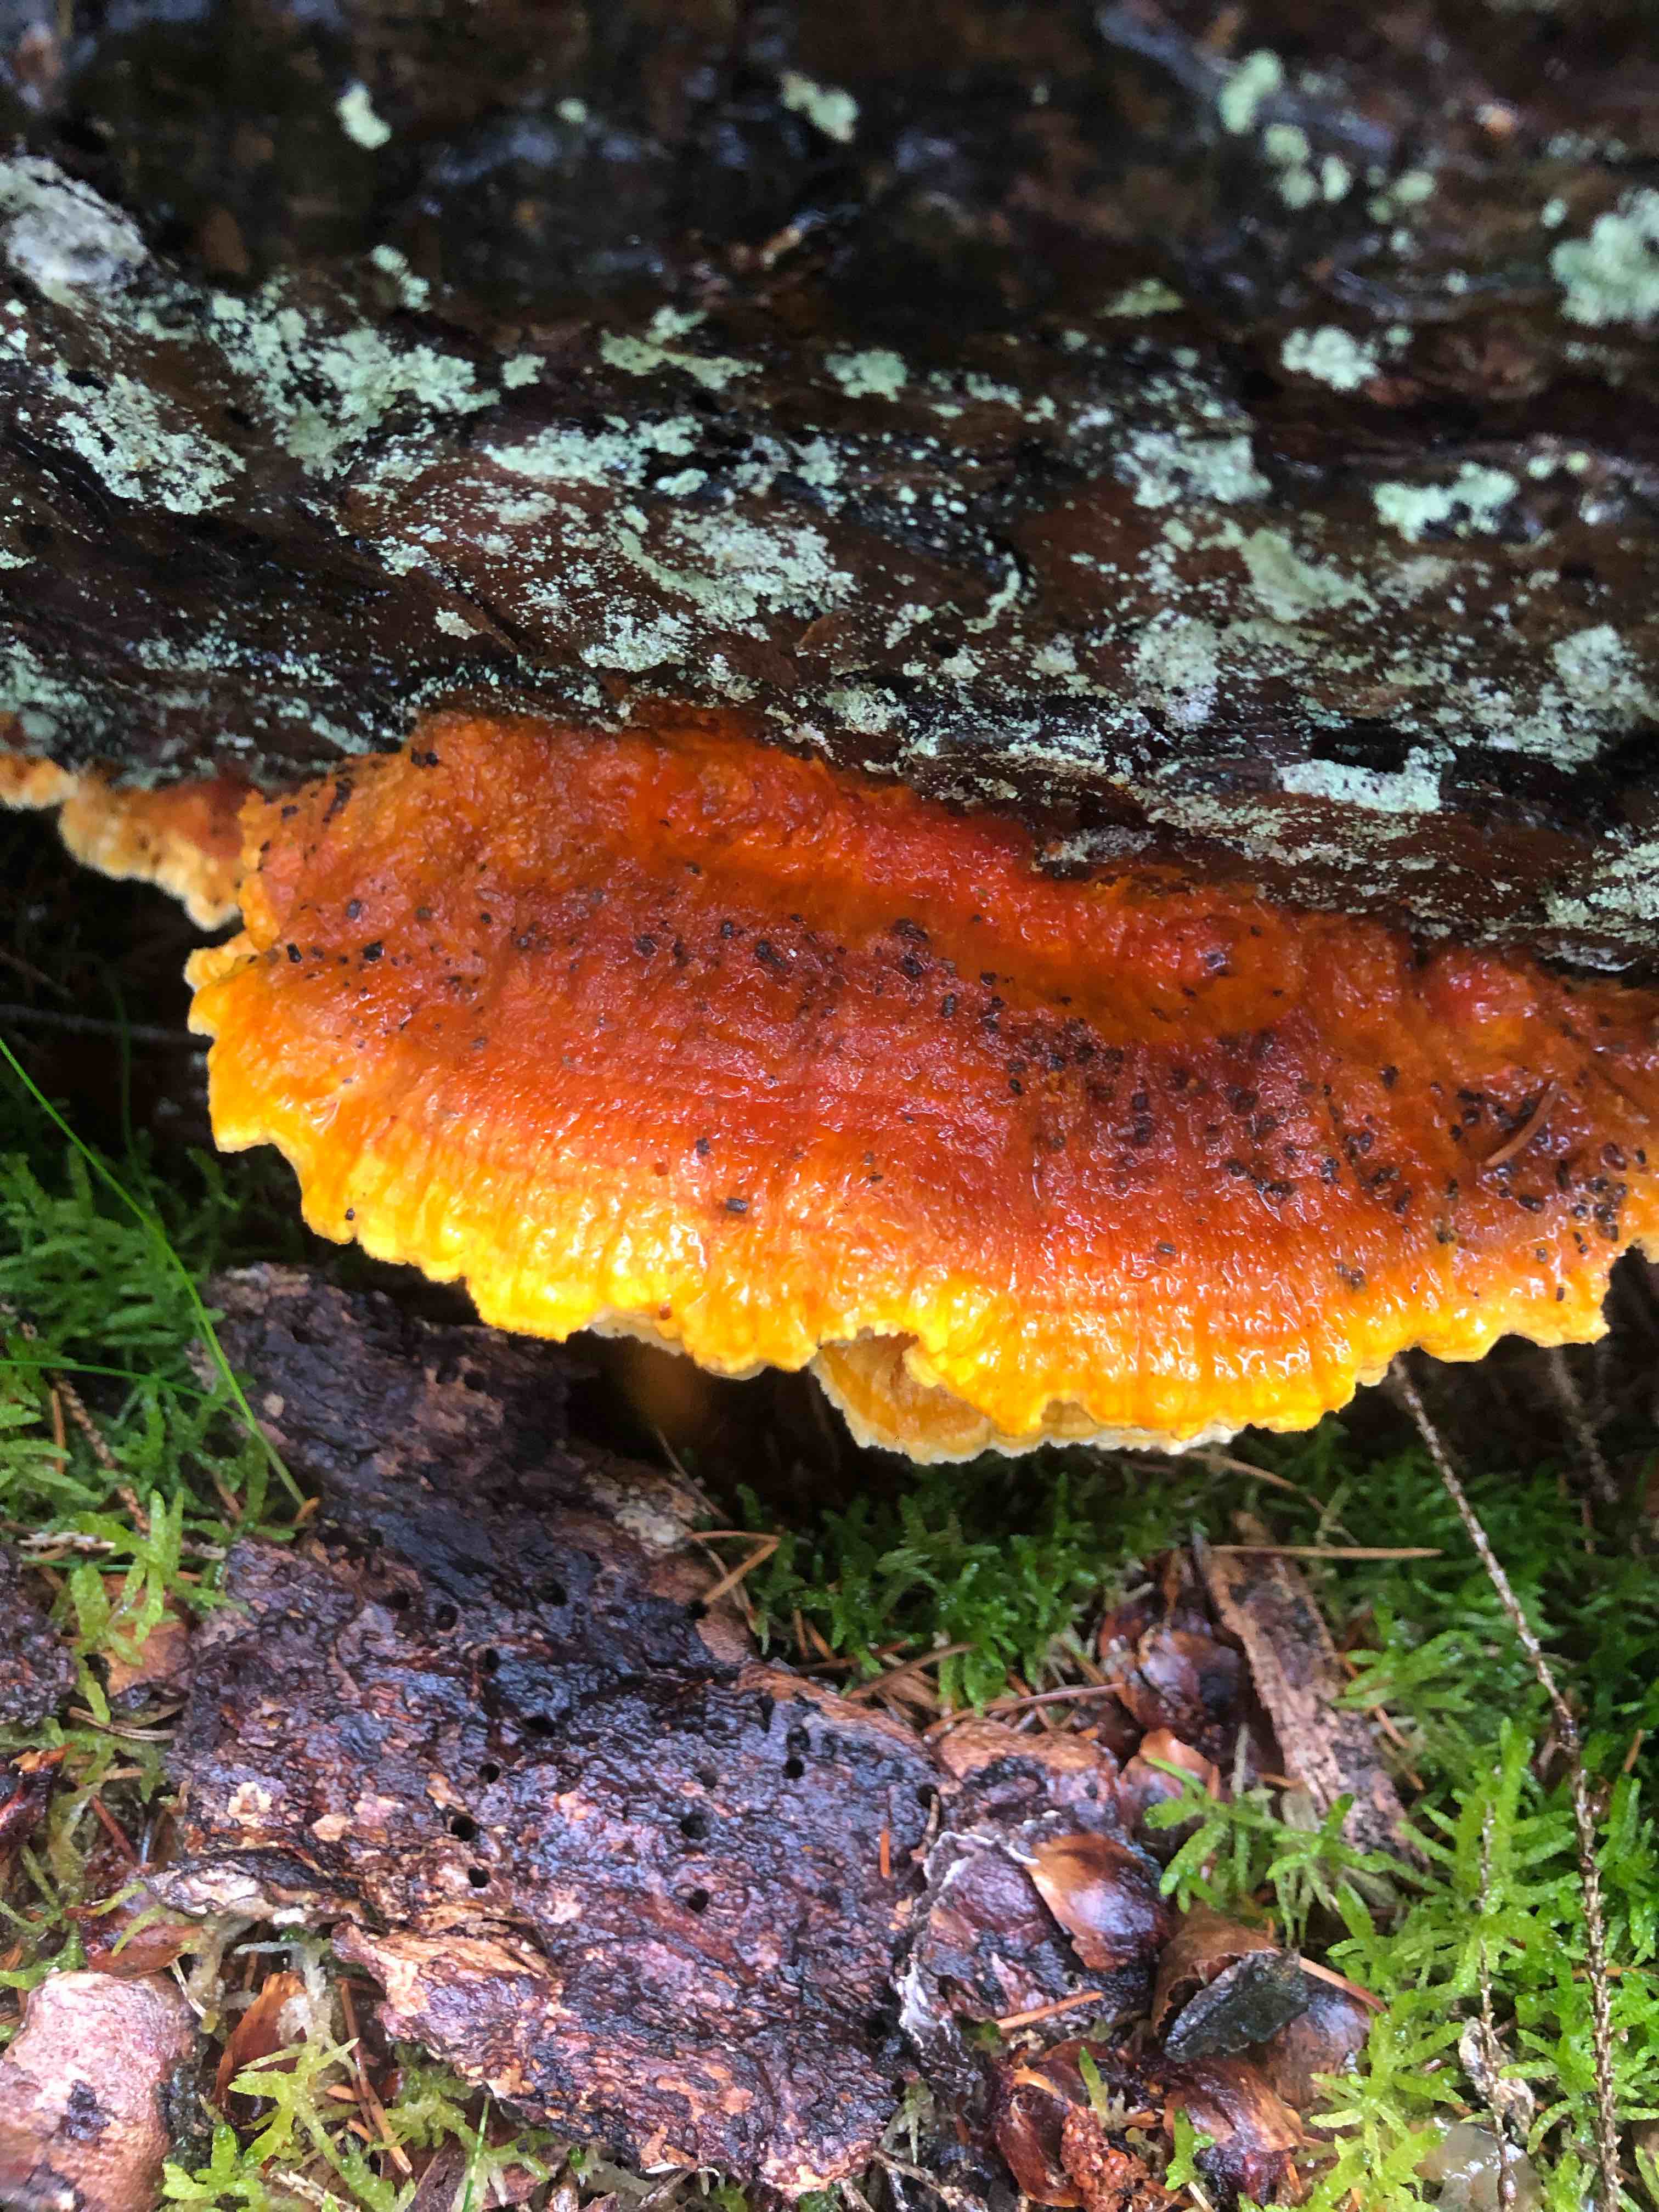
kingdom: Fungi
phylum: Basidiomycota
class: Agaricomycetes
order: Polyporales
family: Pycnoporellaceae
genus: Pycnoporellus
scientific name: Pycnoporellus fulgens
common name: flammeporesvamp
